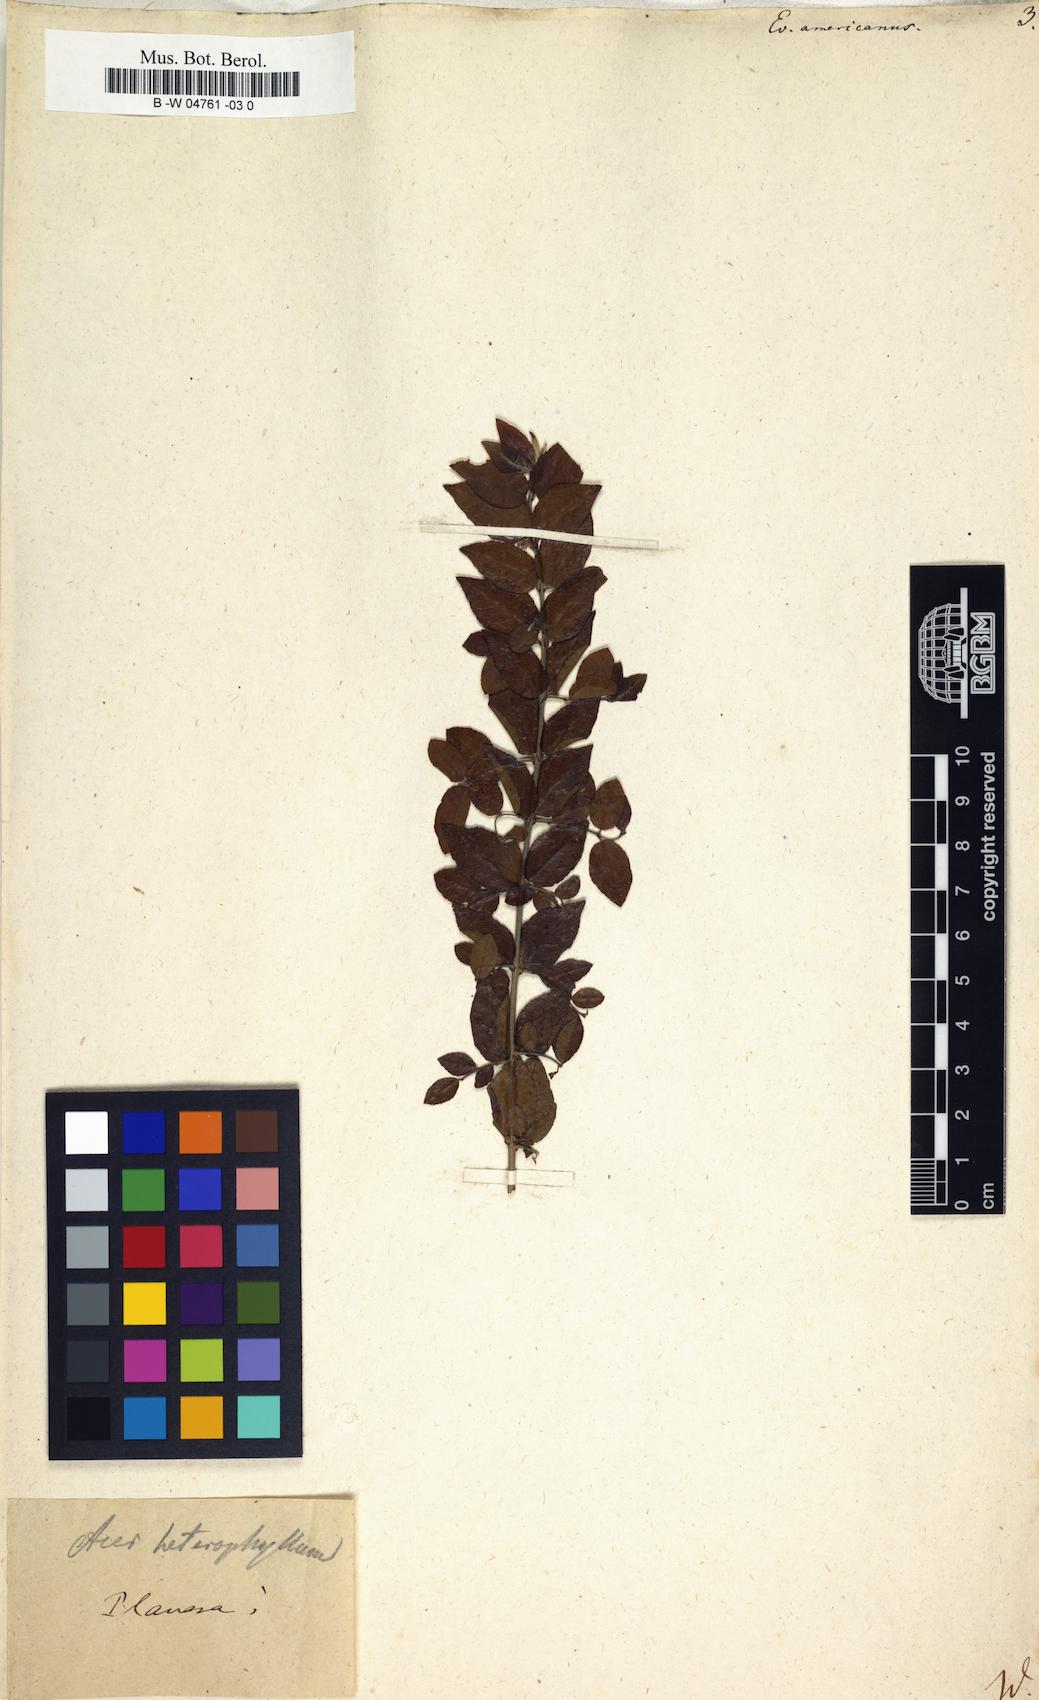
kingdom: Plantae
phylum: Tracheophyta
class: Magnoliopsida
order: Celastrales
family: Celastraceae
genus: Euonymus
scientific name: Euonymus americanus
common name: Bursting-heart
